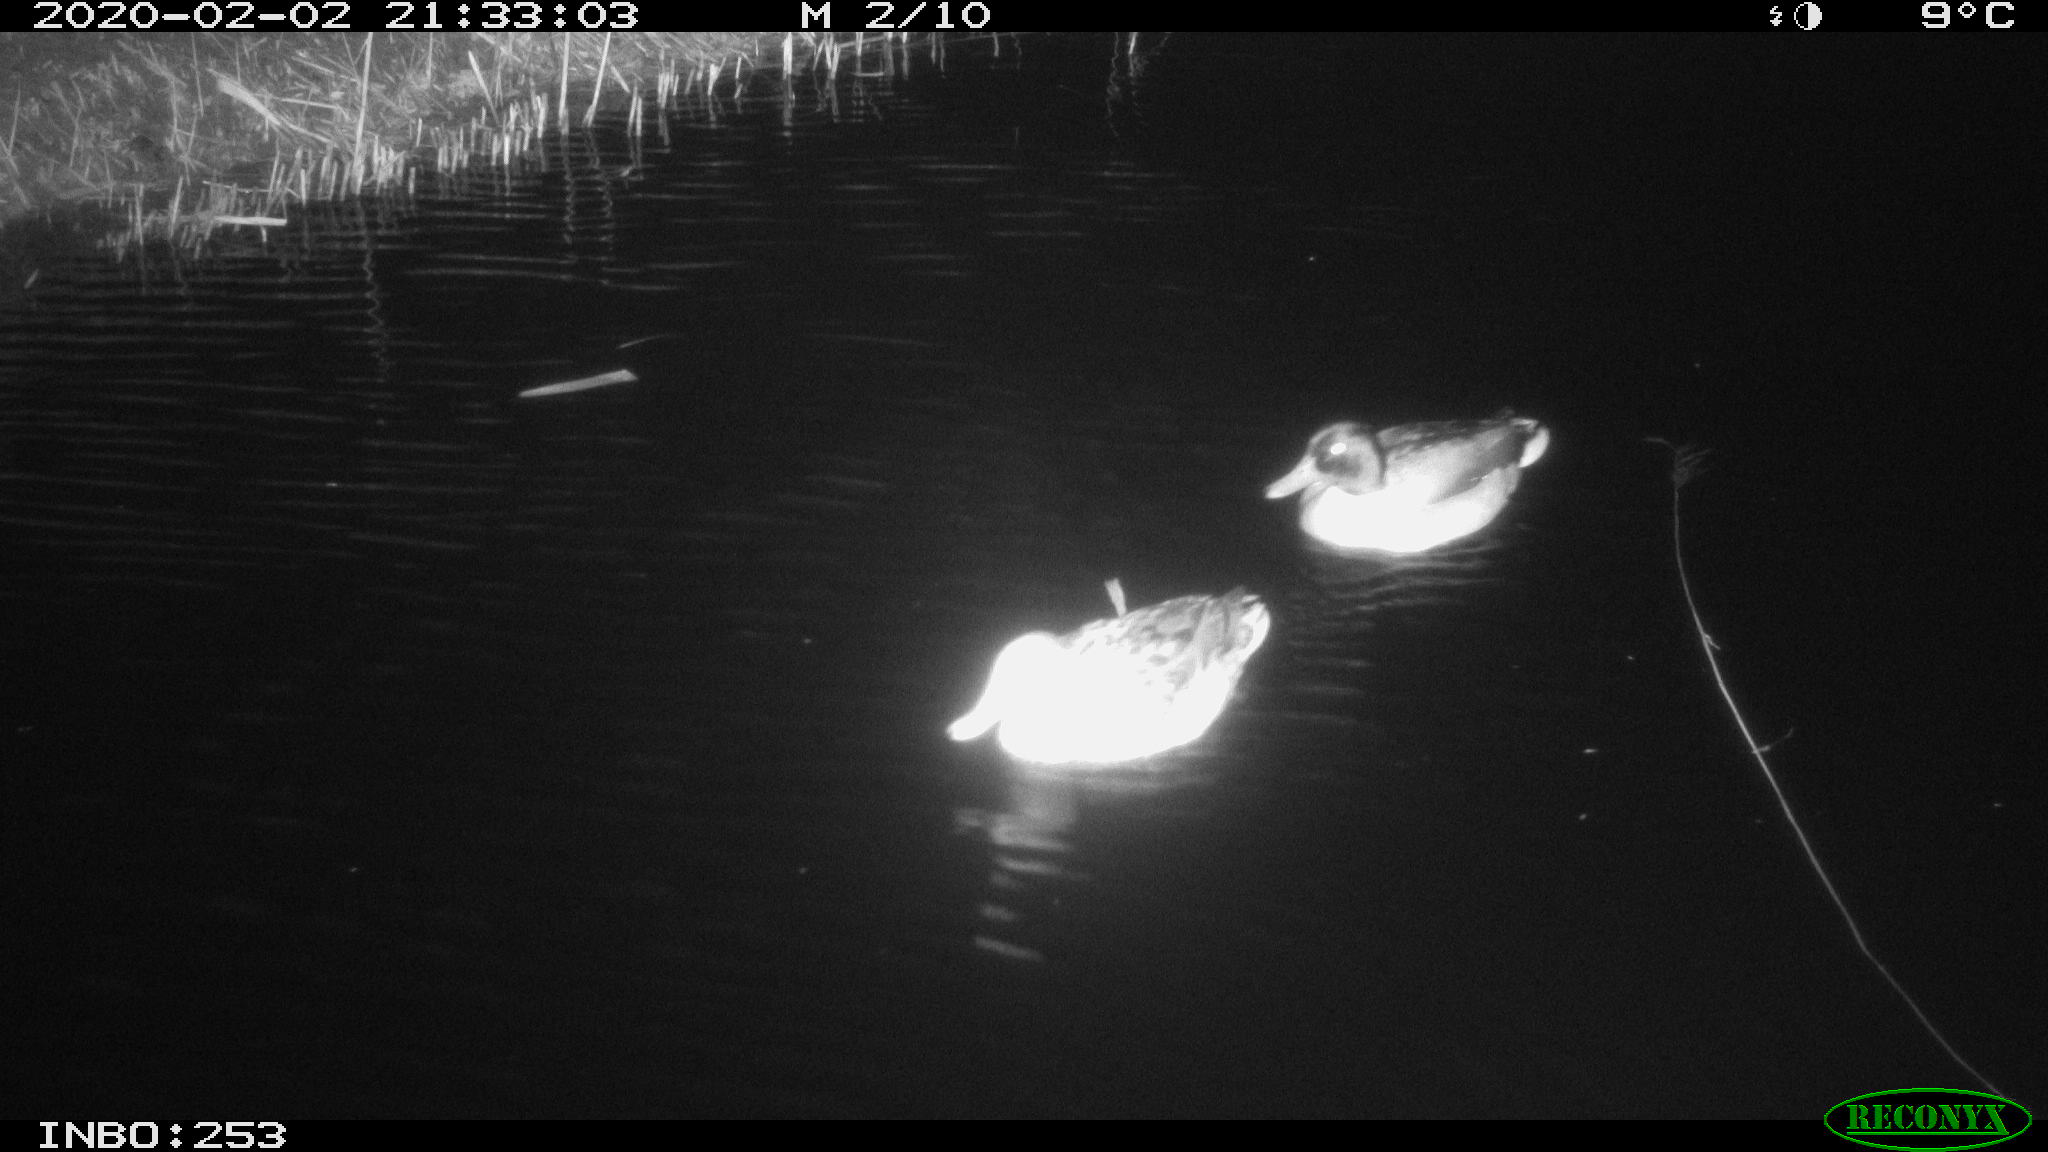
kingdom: Animalia
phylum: Chordata
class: Aves
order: Anseriformes
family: Anatidae
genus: Anas
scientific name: Anas platyrhynchos
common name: Mallard
